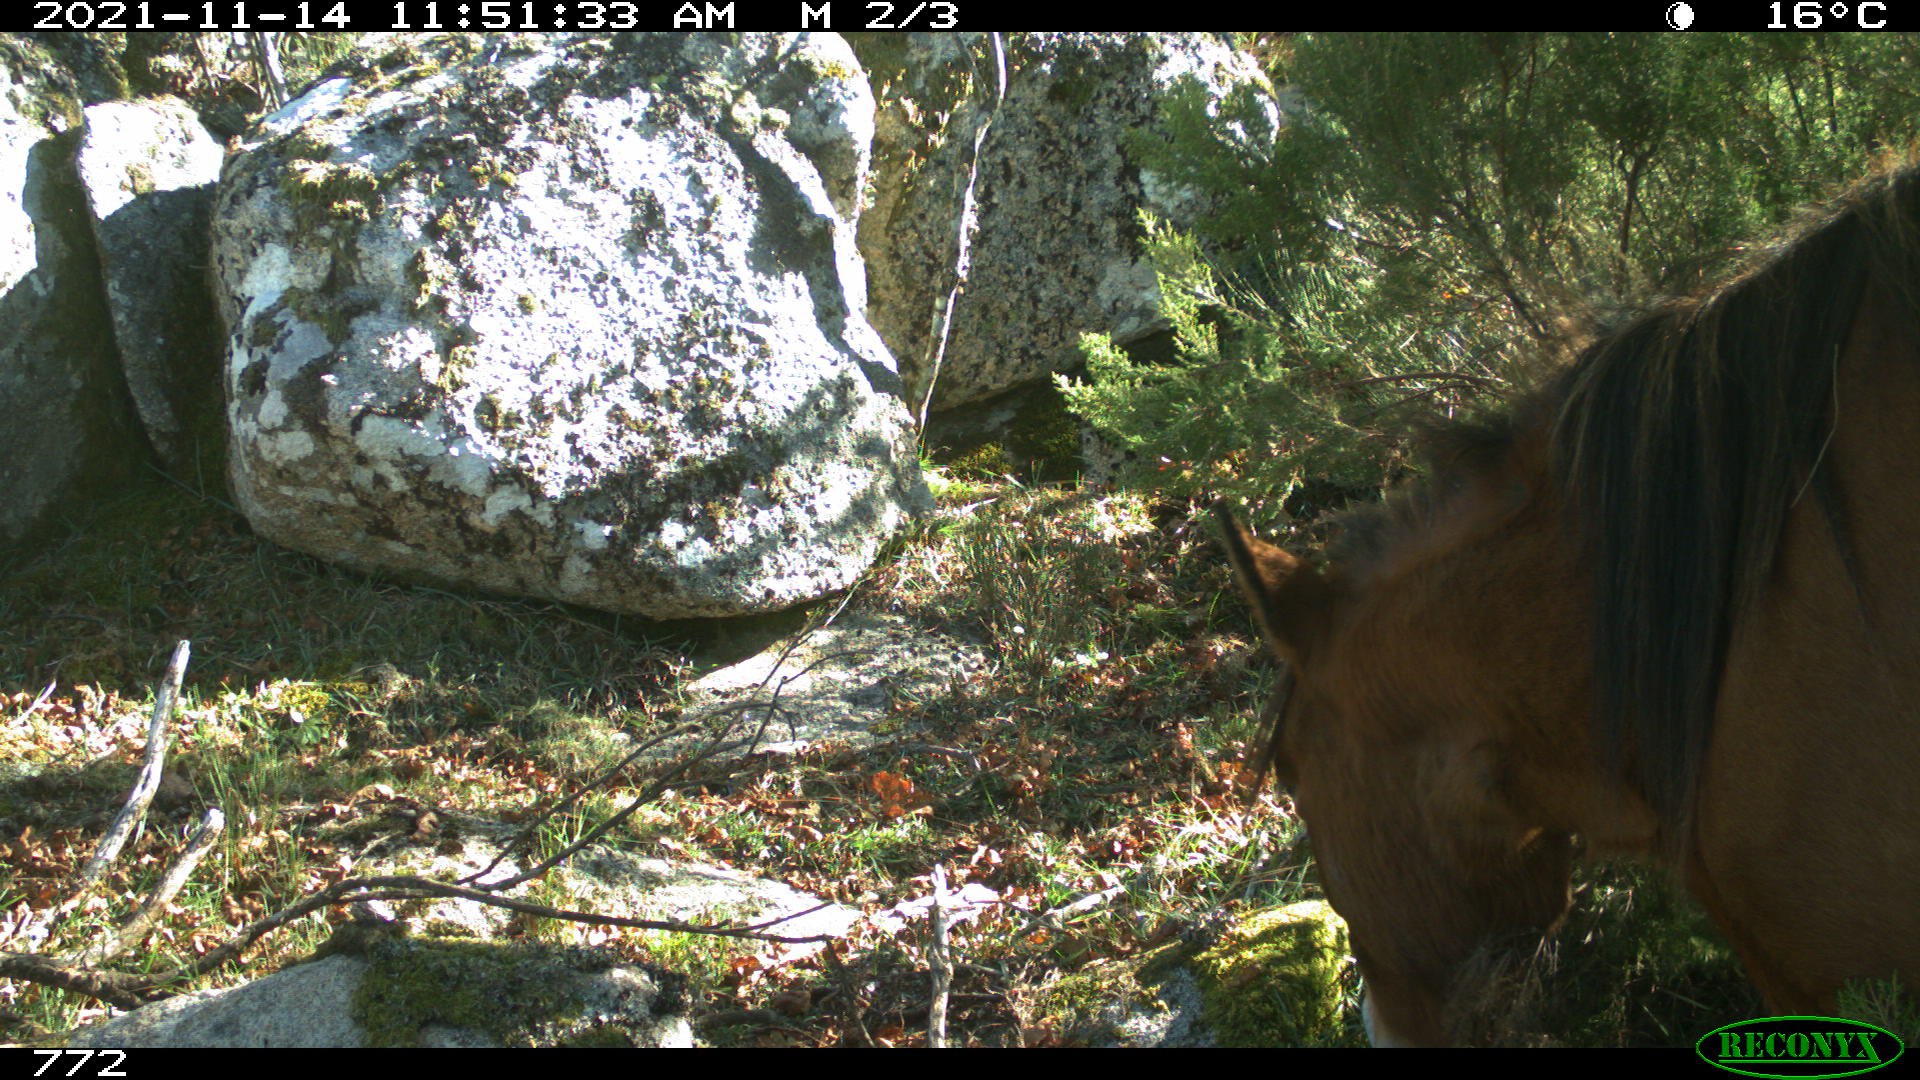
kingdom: Animalia
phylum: Chordata
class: Mammalia
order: Perissodactyla
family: Equidae
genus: Equus
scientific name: Equus caballus
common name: Horse
